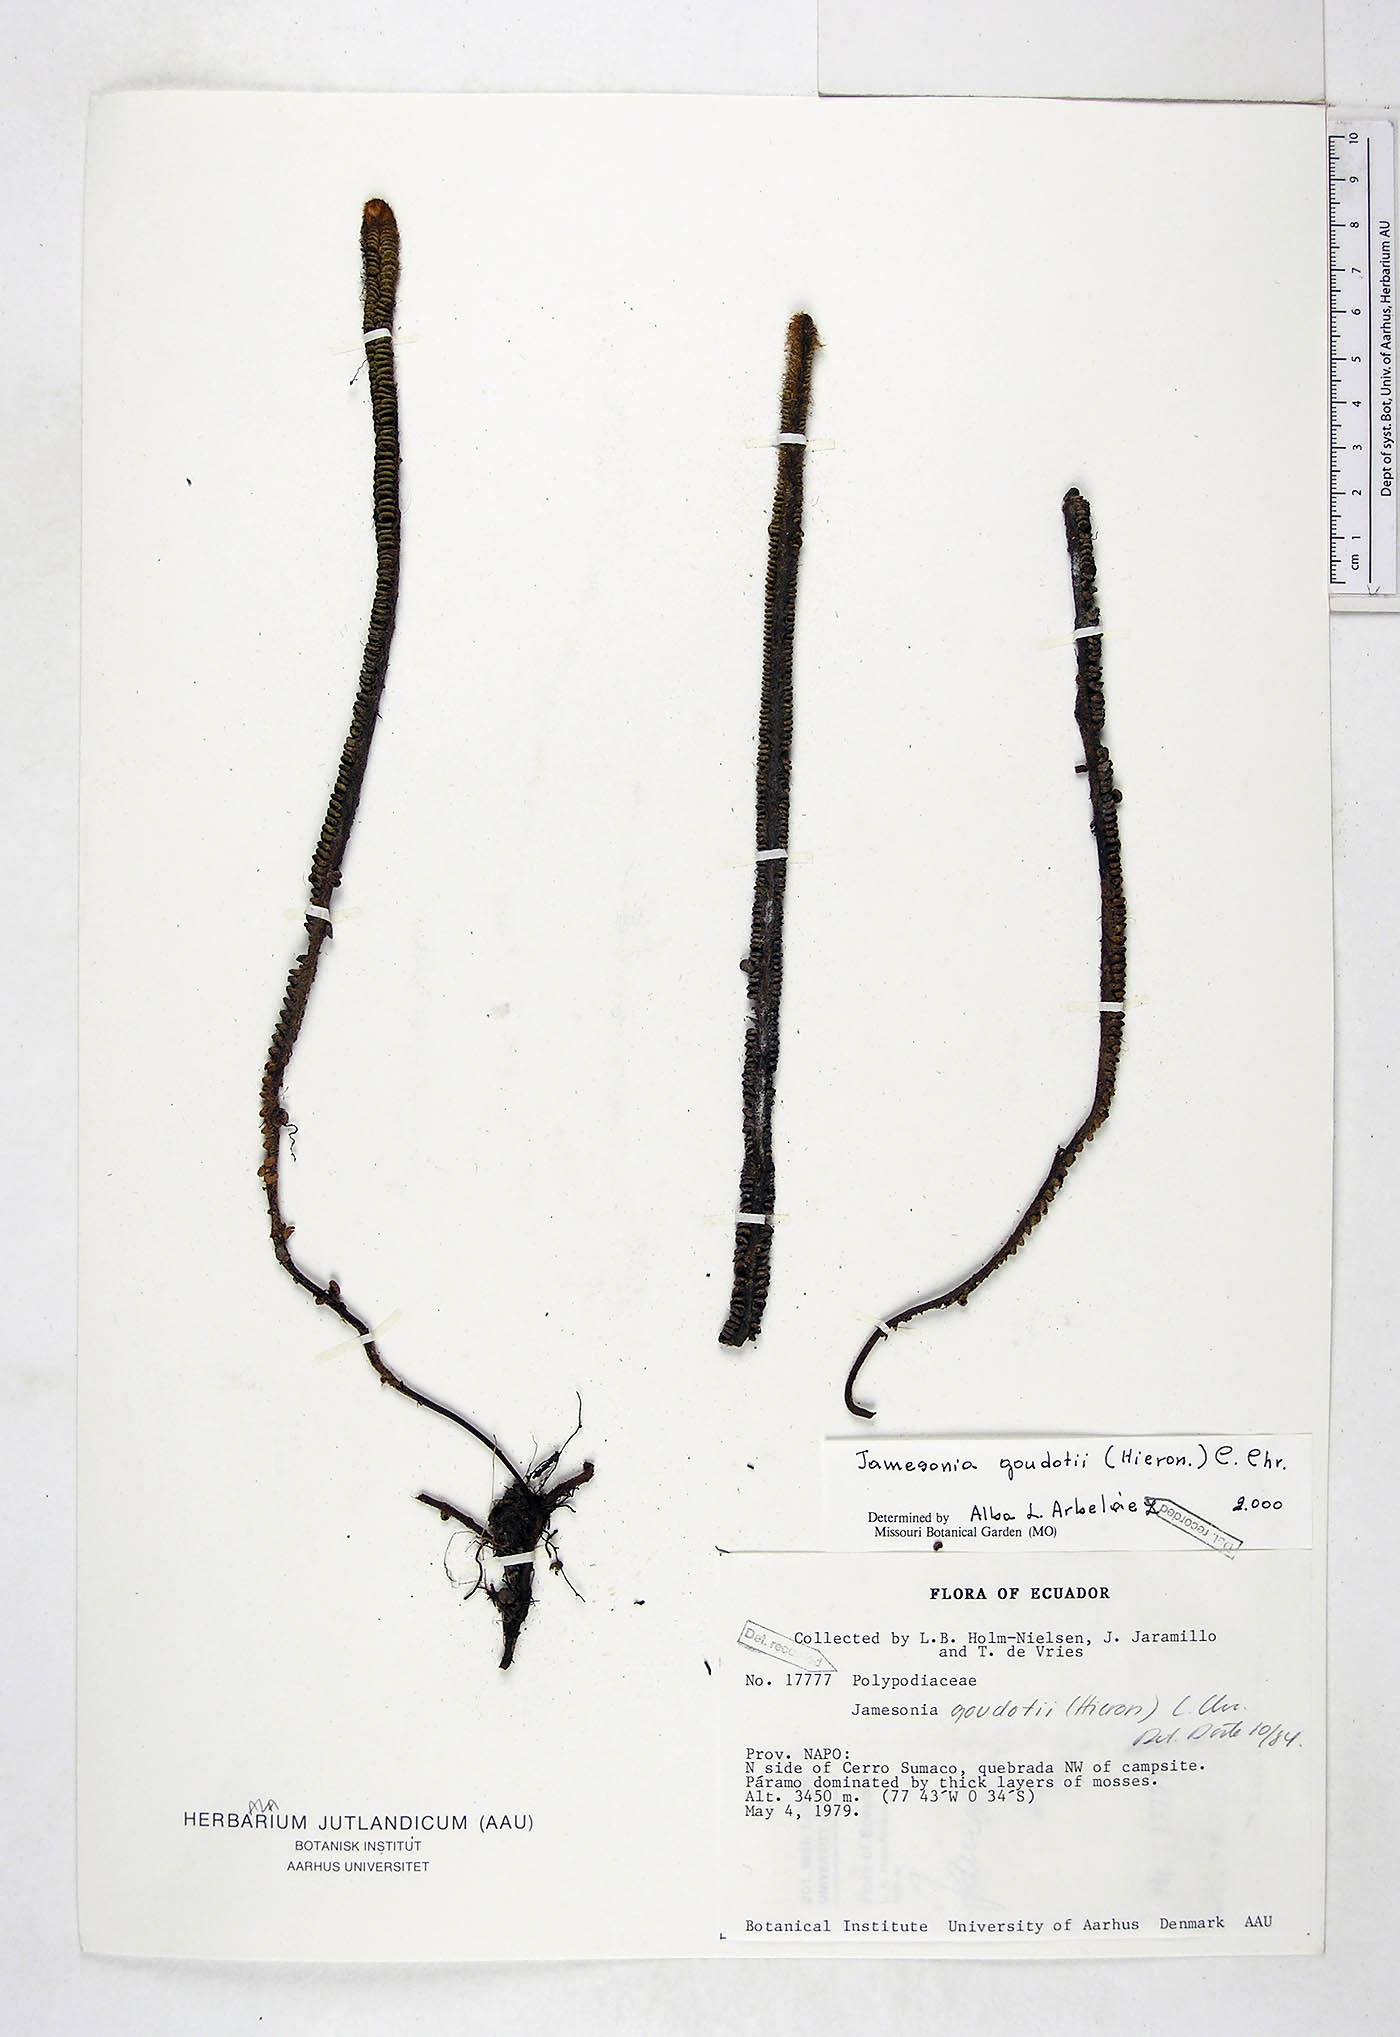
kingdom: Plantae
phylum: Tracheophyta
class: Polypodiopsida
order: Polypodiales
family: Pteridaceae
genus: Jamesonia
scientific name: Jamesonia goudotii
